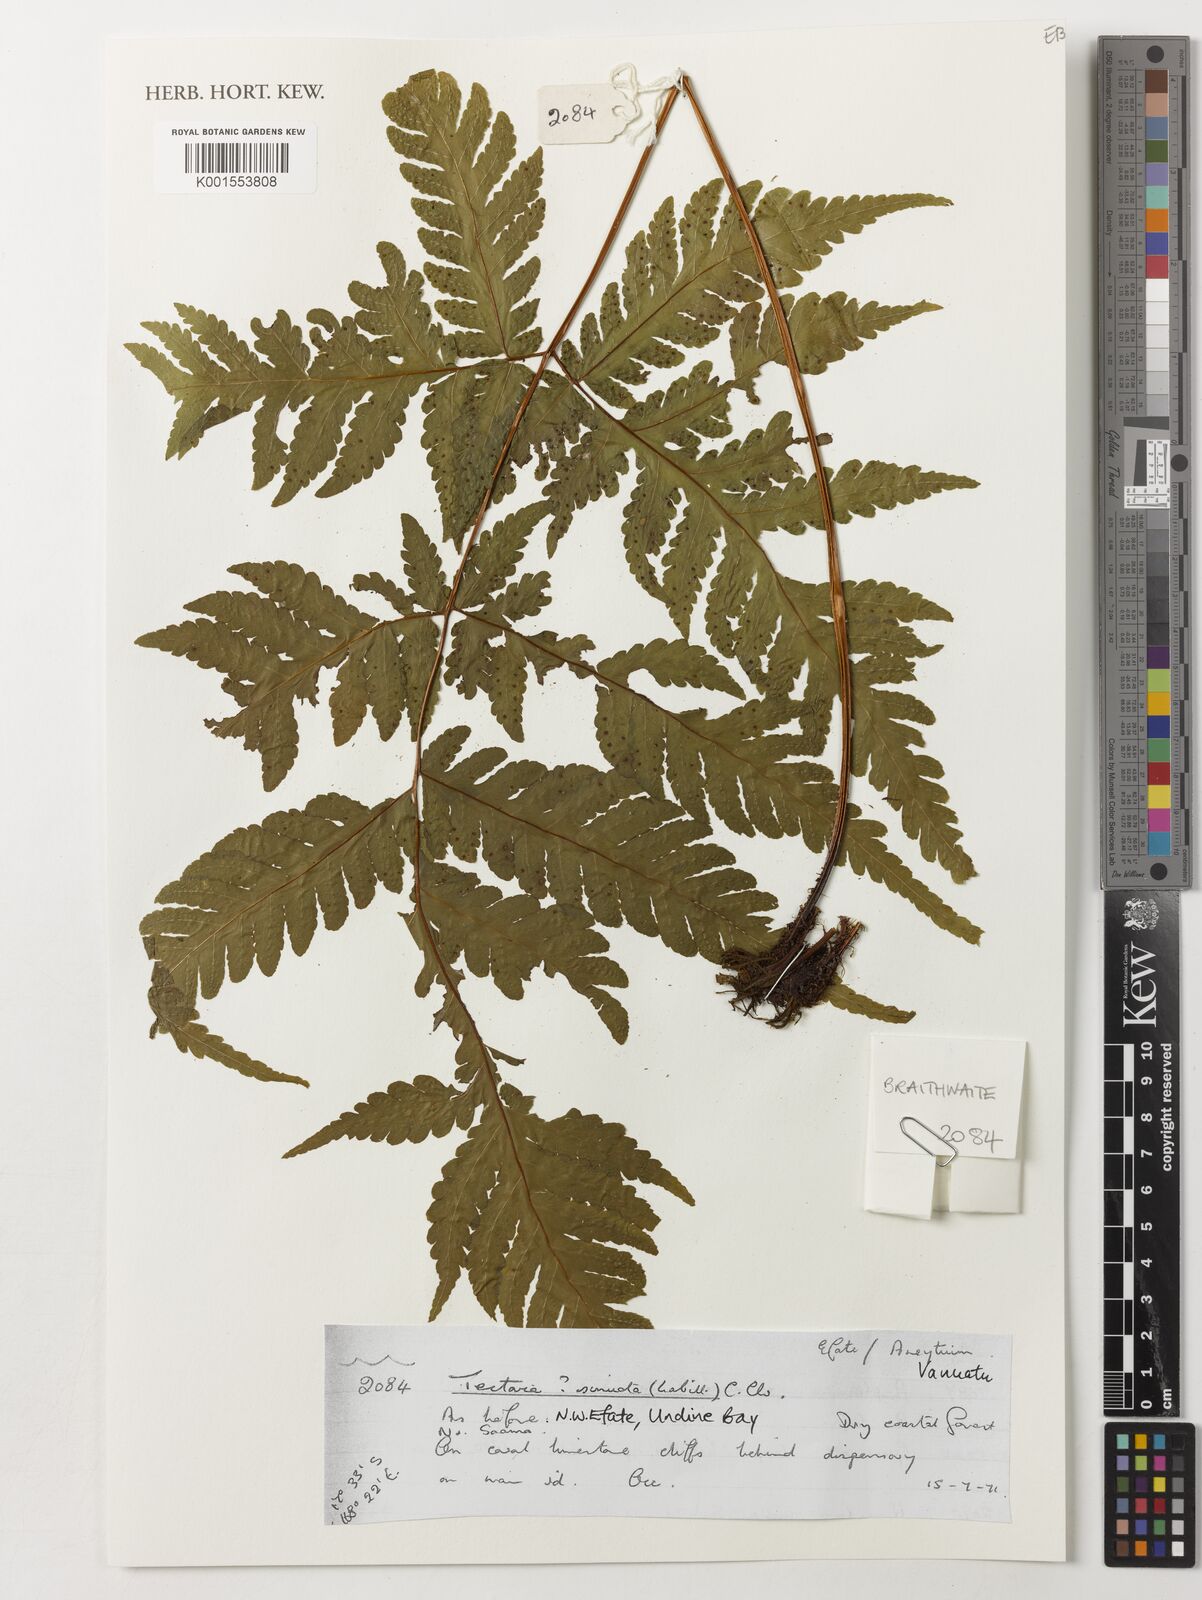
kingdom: Plantae
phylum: Tracheophyta
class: Polypodiopsida
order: Polypodiales
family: Tectariaceae
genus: Tectaria
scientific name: Tectaria sinuata
